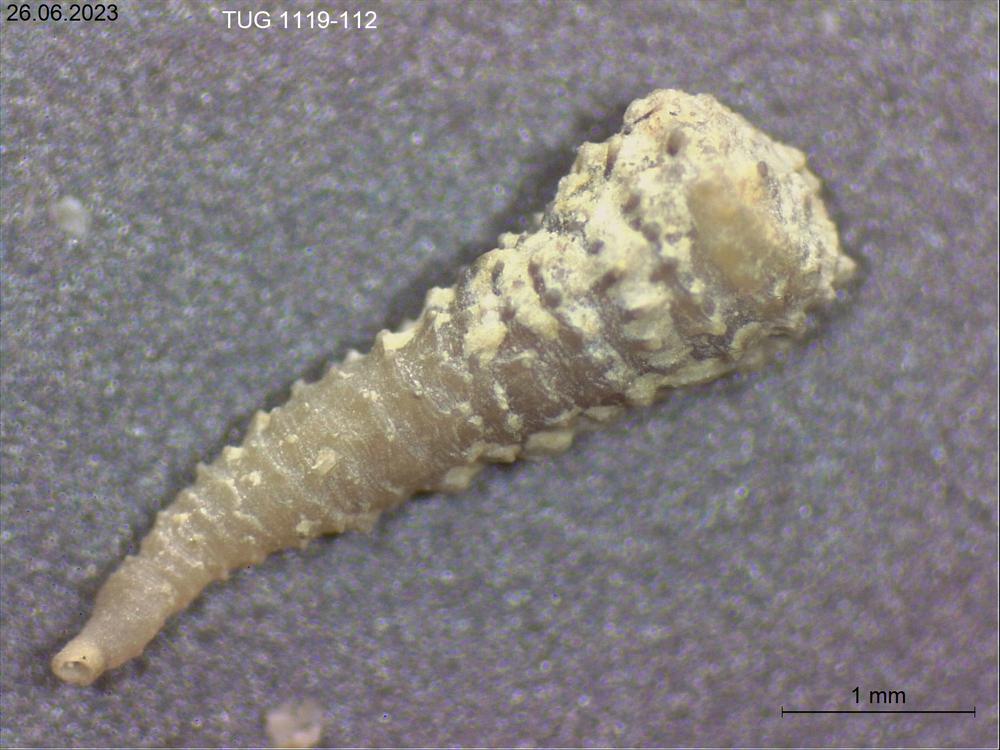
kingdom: Animalia
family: Cornulitidae
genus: Conchicolites
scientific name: Conchicolites
